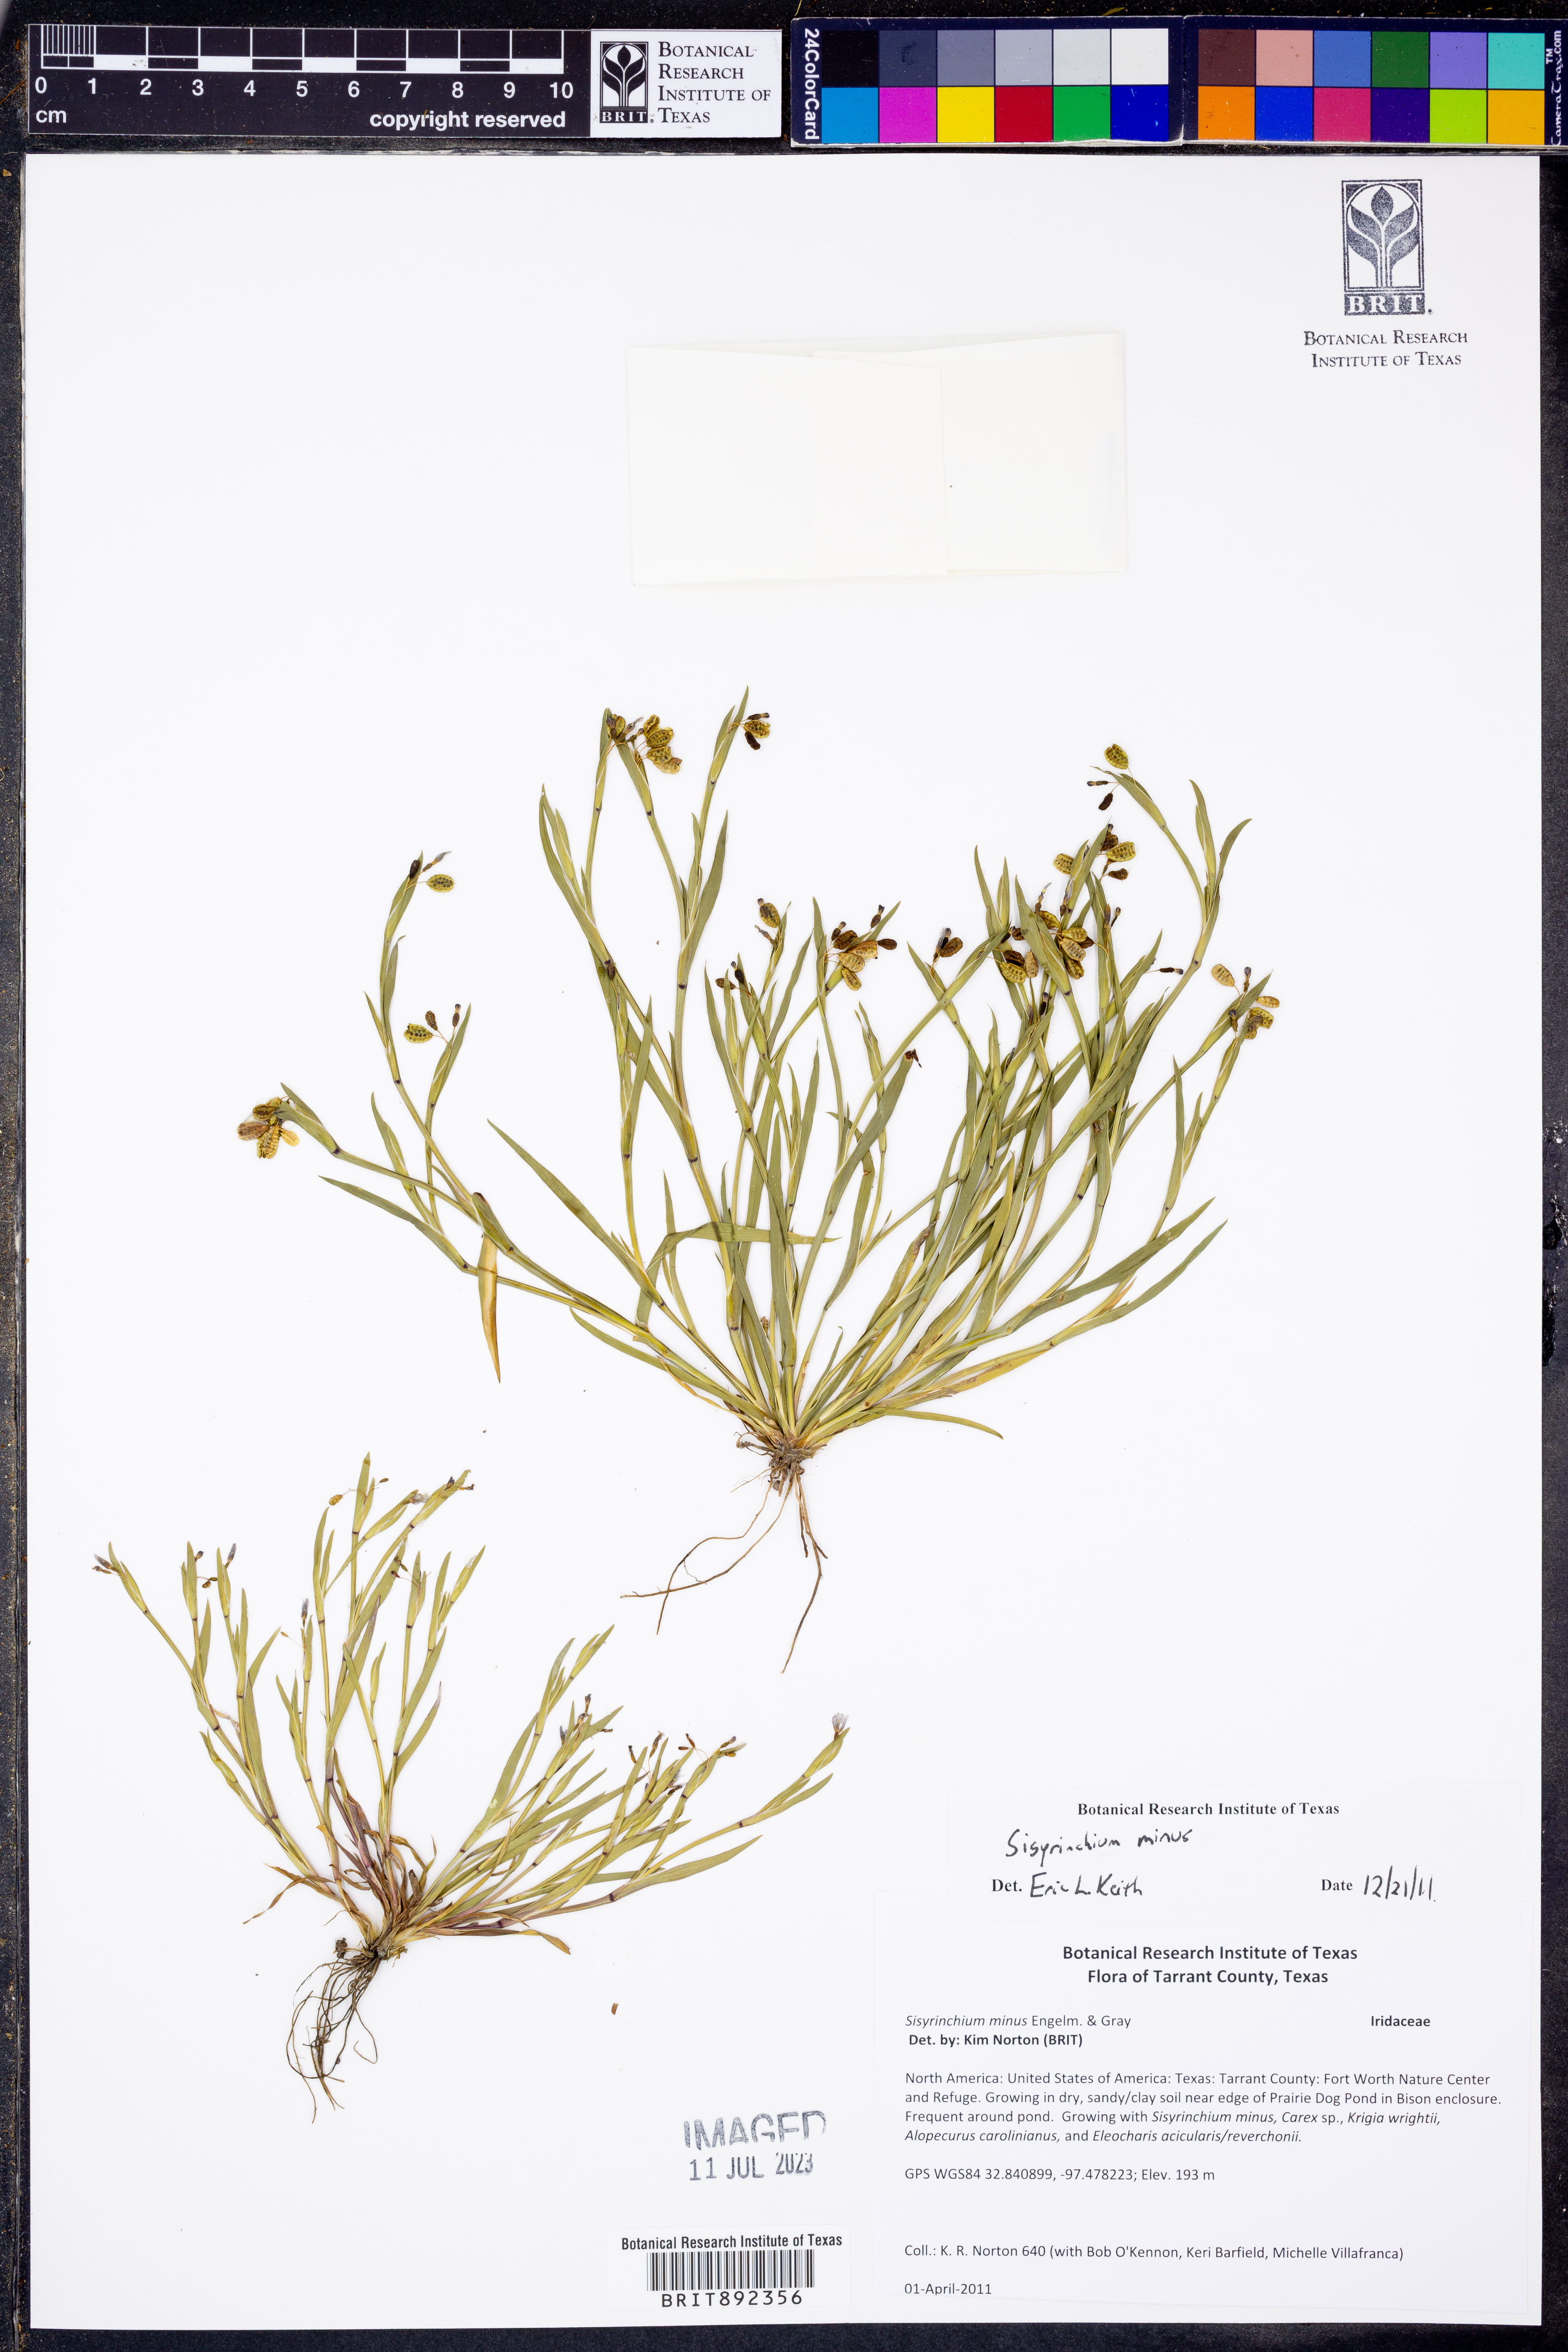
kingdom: Plantae
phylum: Tracheophyta
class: Liliopsida
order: Asparagales
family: Iridaceae
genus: Sisyrinchium
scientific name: Sisyrinchium minus
